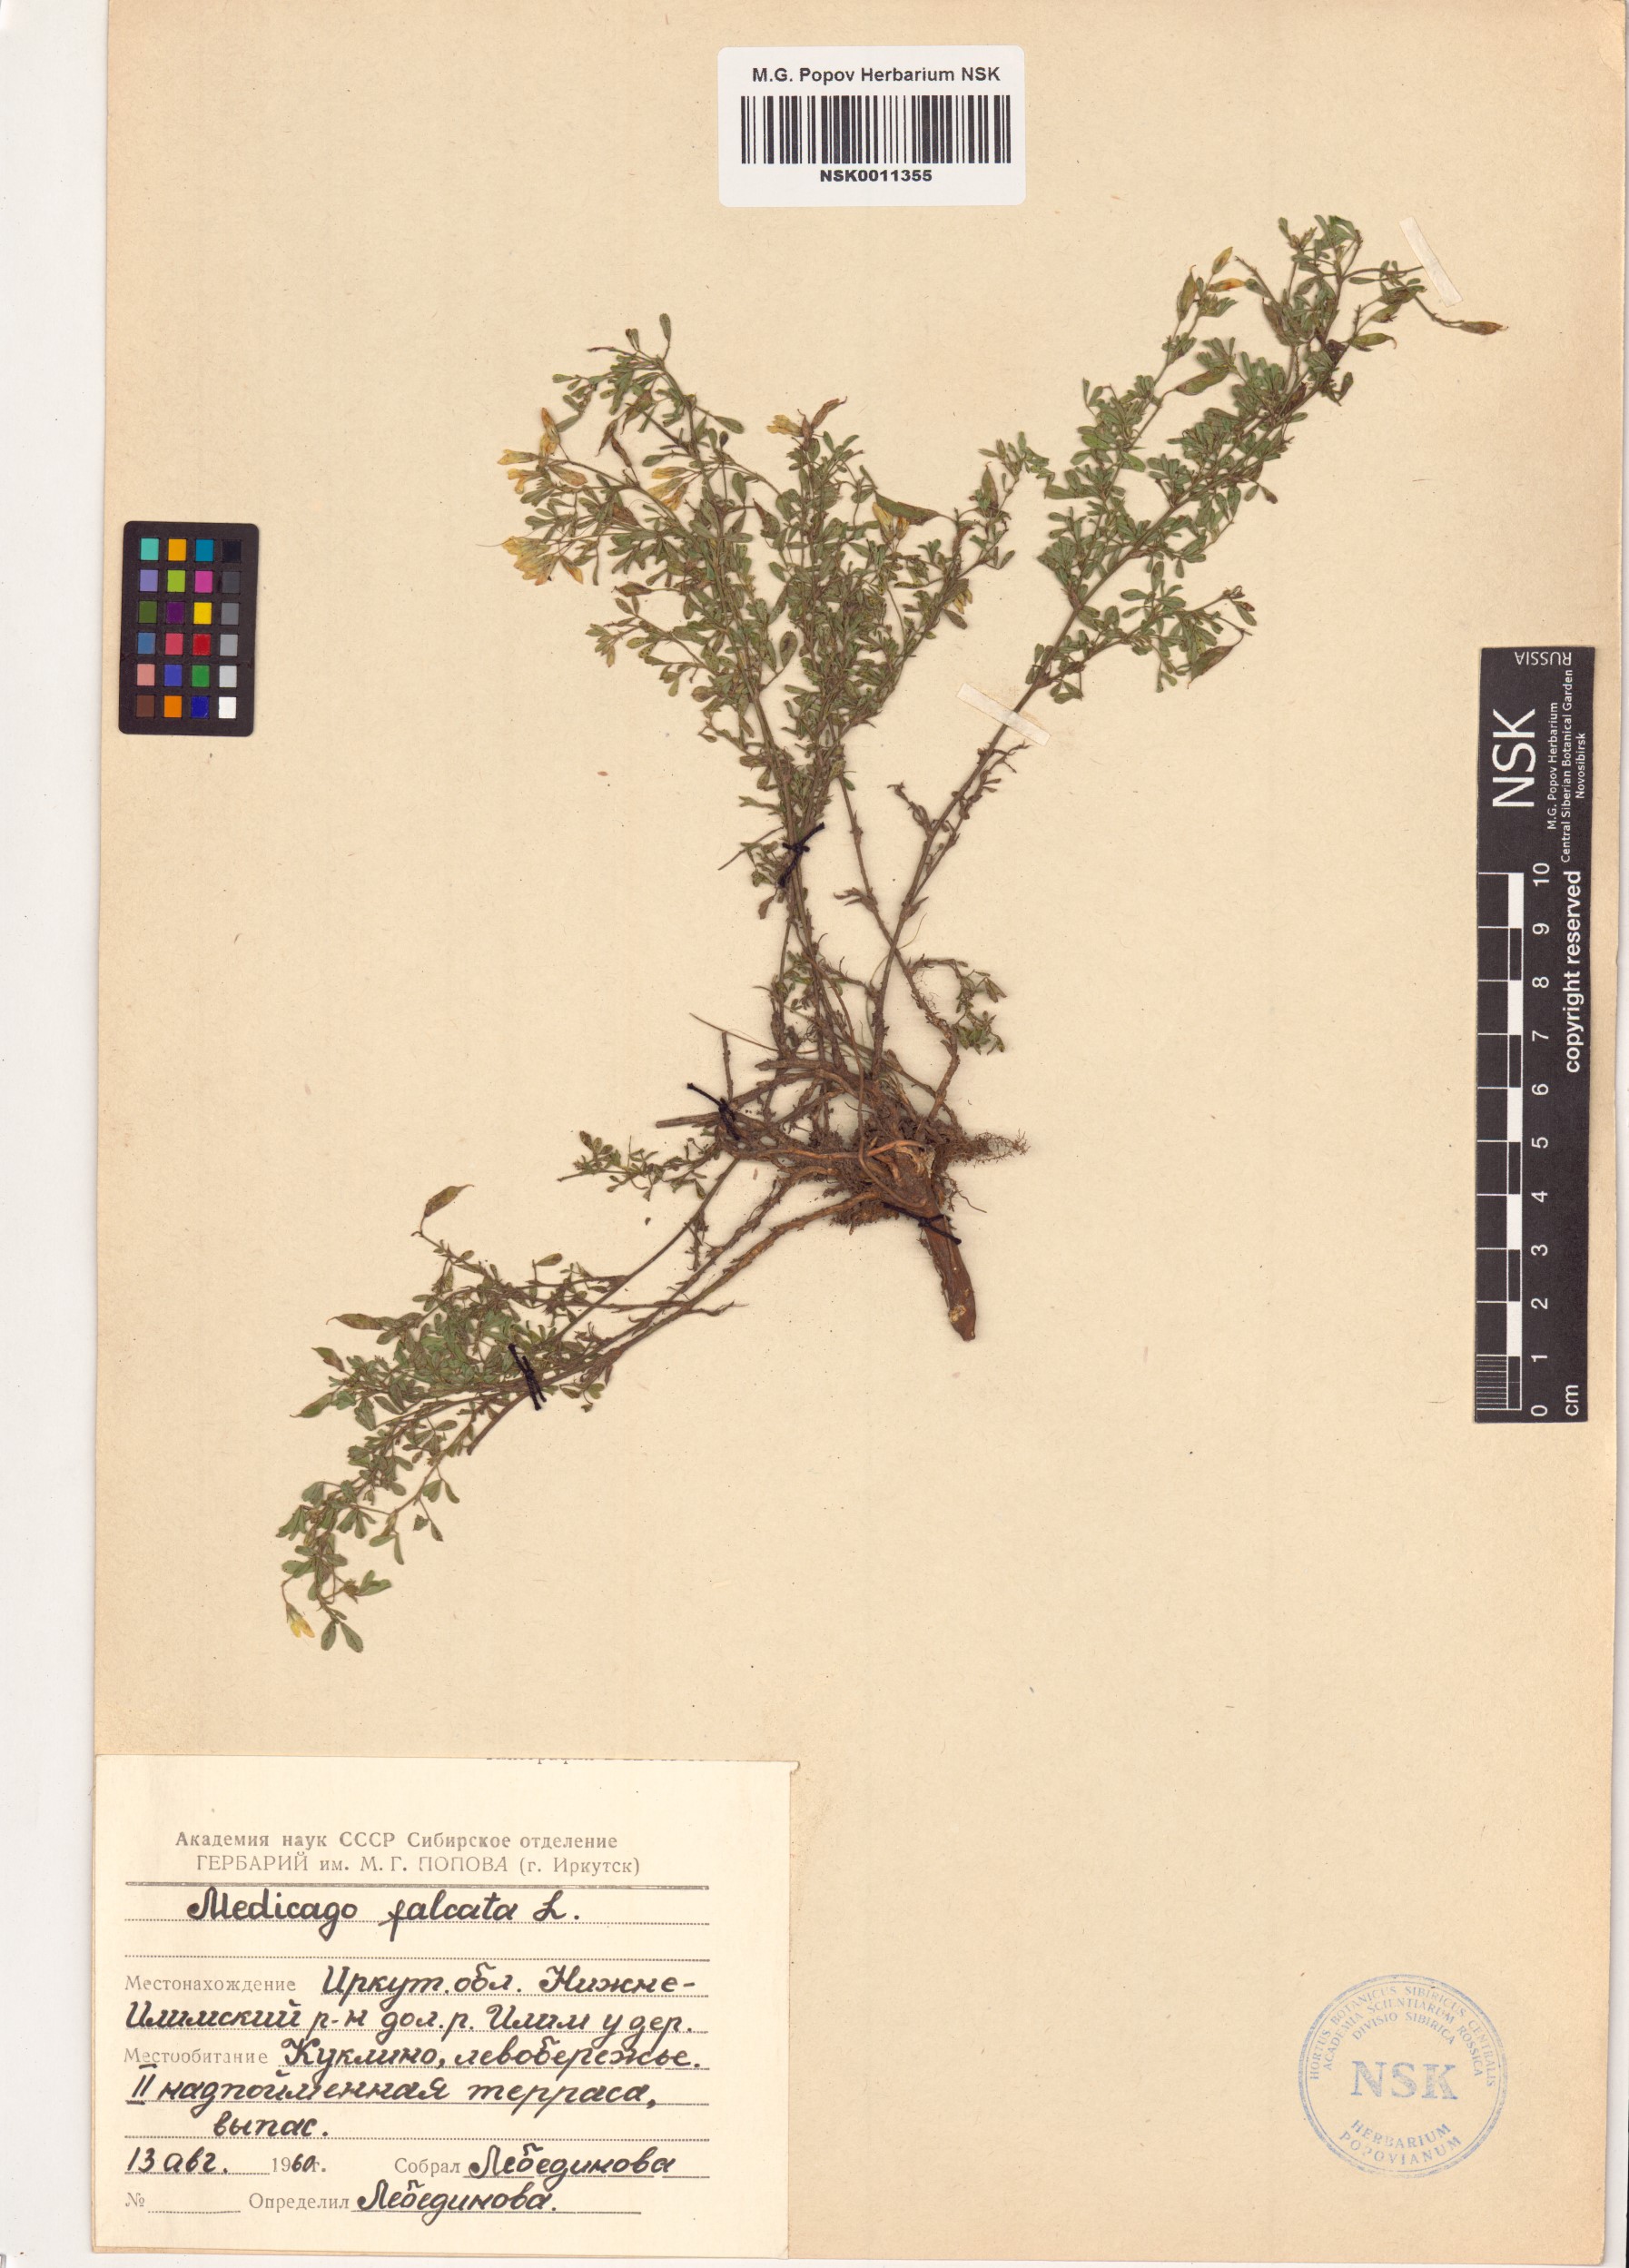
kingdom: Plantae
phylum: Tracheophyta
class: Magnoliopsida
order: Fabales
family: Fabaceae
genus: Medicago
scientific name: Medicago falcata
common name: Sickle medick
